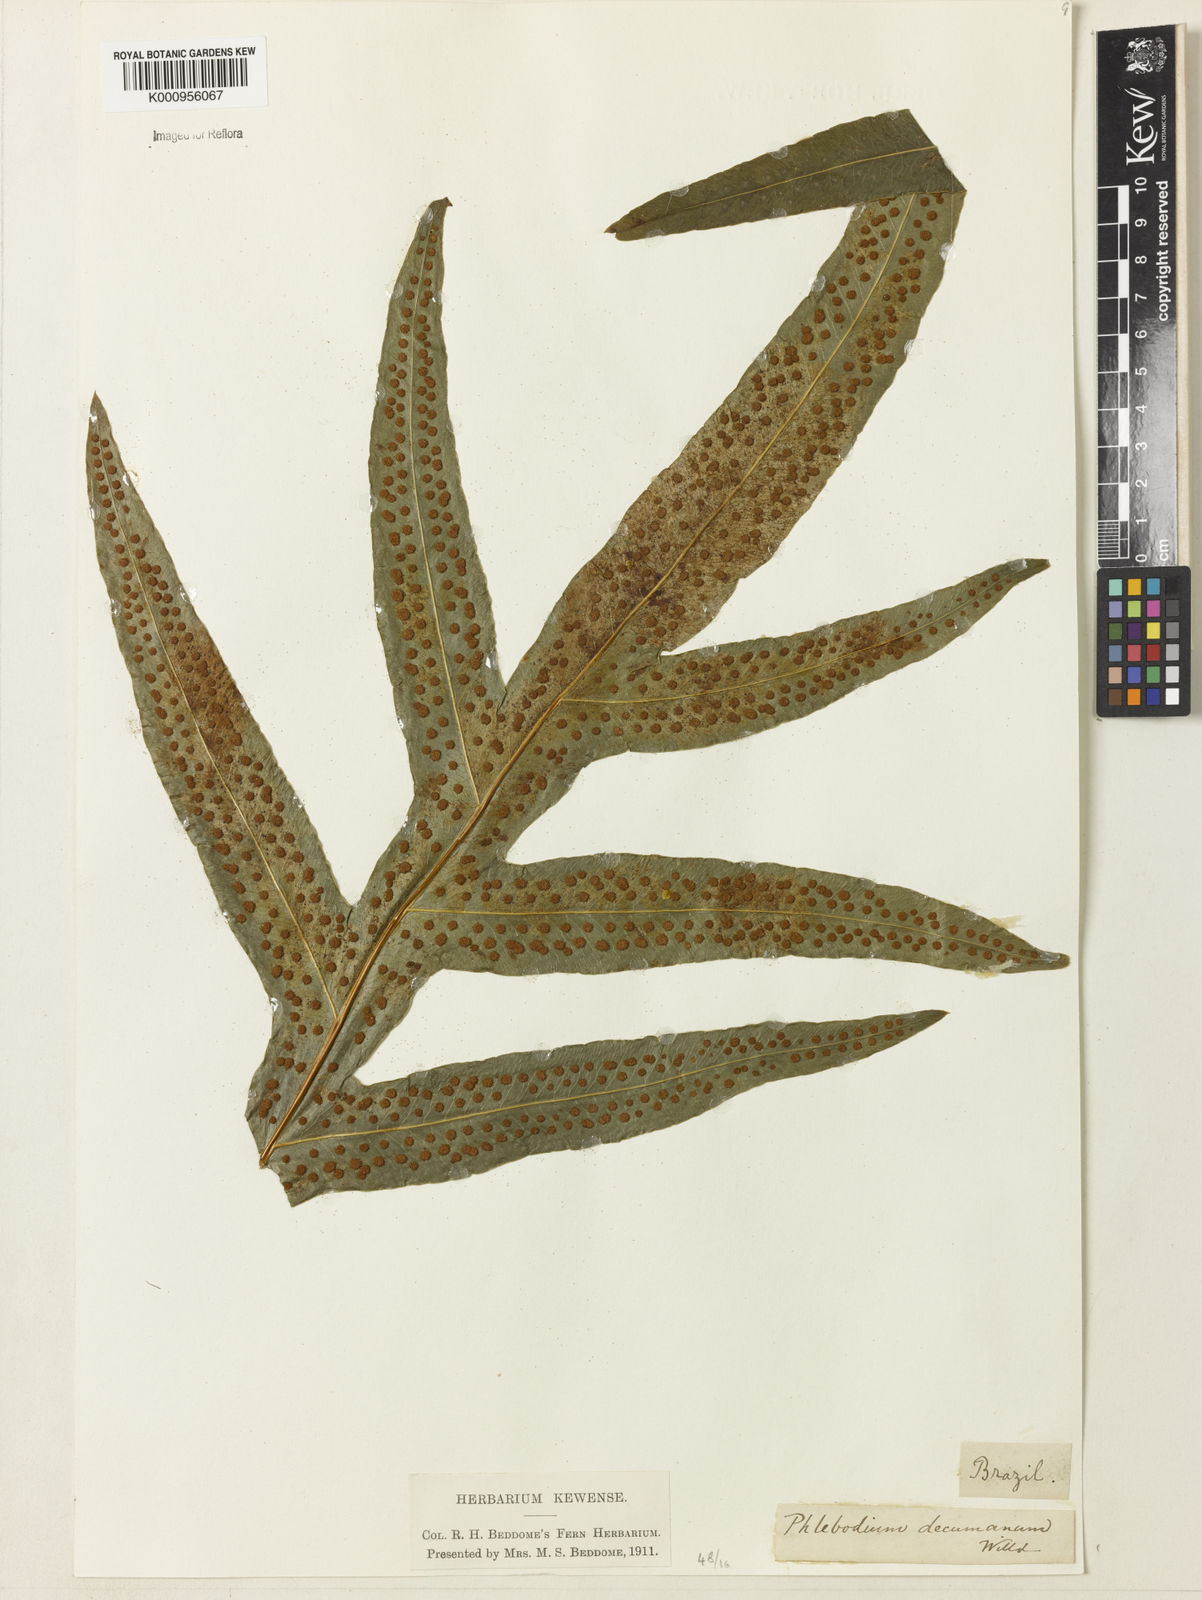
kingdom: Plantae
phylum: Tracheophyta
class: Polypodiopsida
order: Polypodiales
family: Polypodiaceae
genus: Phlebodium
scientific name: Phlebodium aureum
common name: Gold-foot fern
